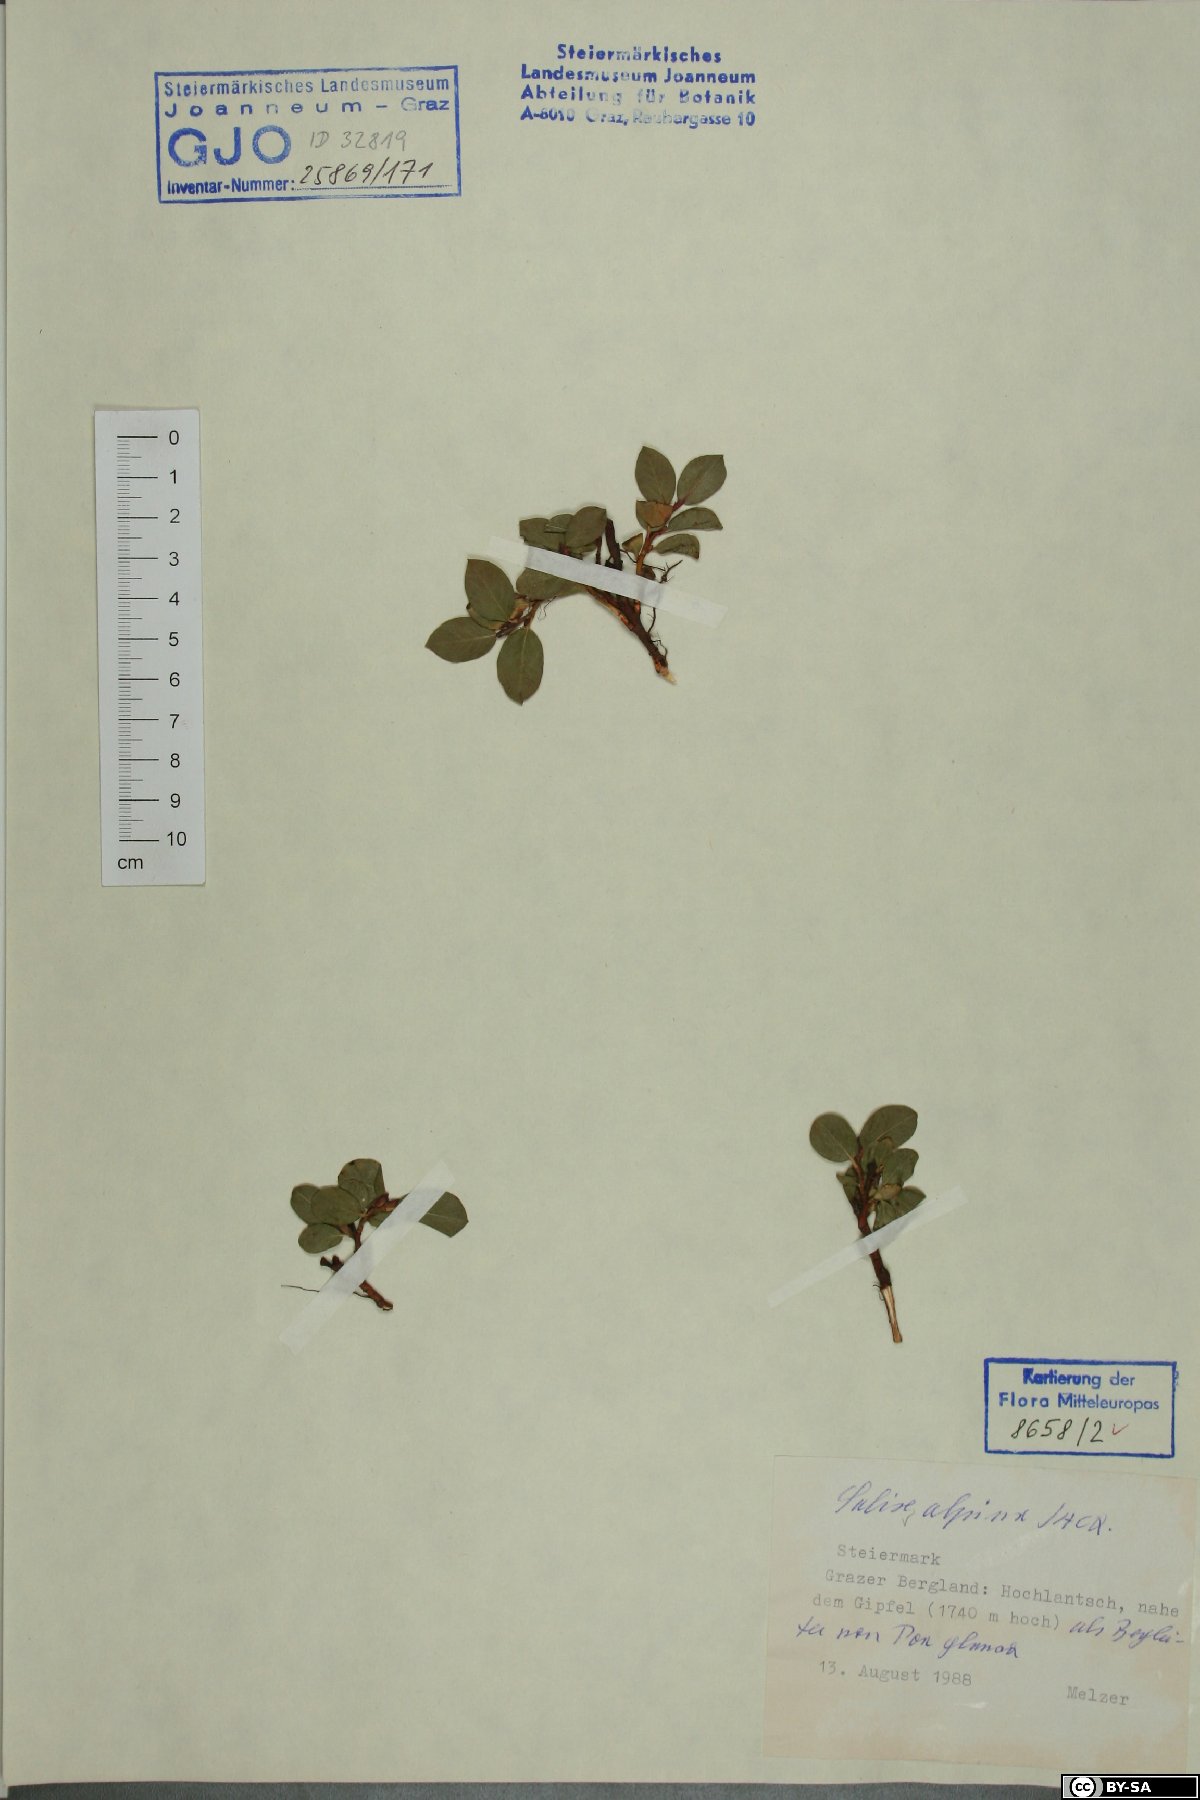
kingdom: Plantae
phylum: Tracheophyta
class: Magnoliopsida
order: Malpighiales
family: Salicaceae
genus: Salix
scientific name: Salix alpina
